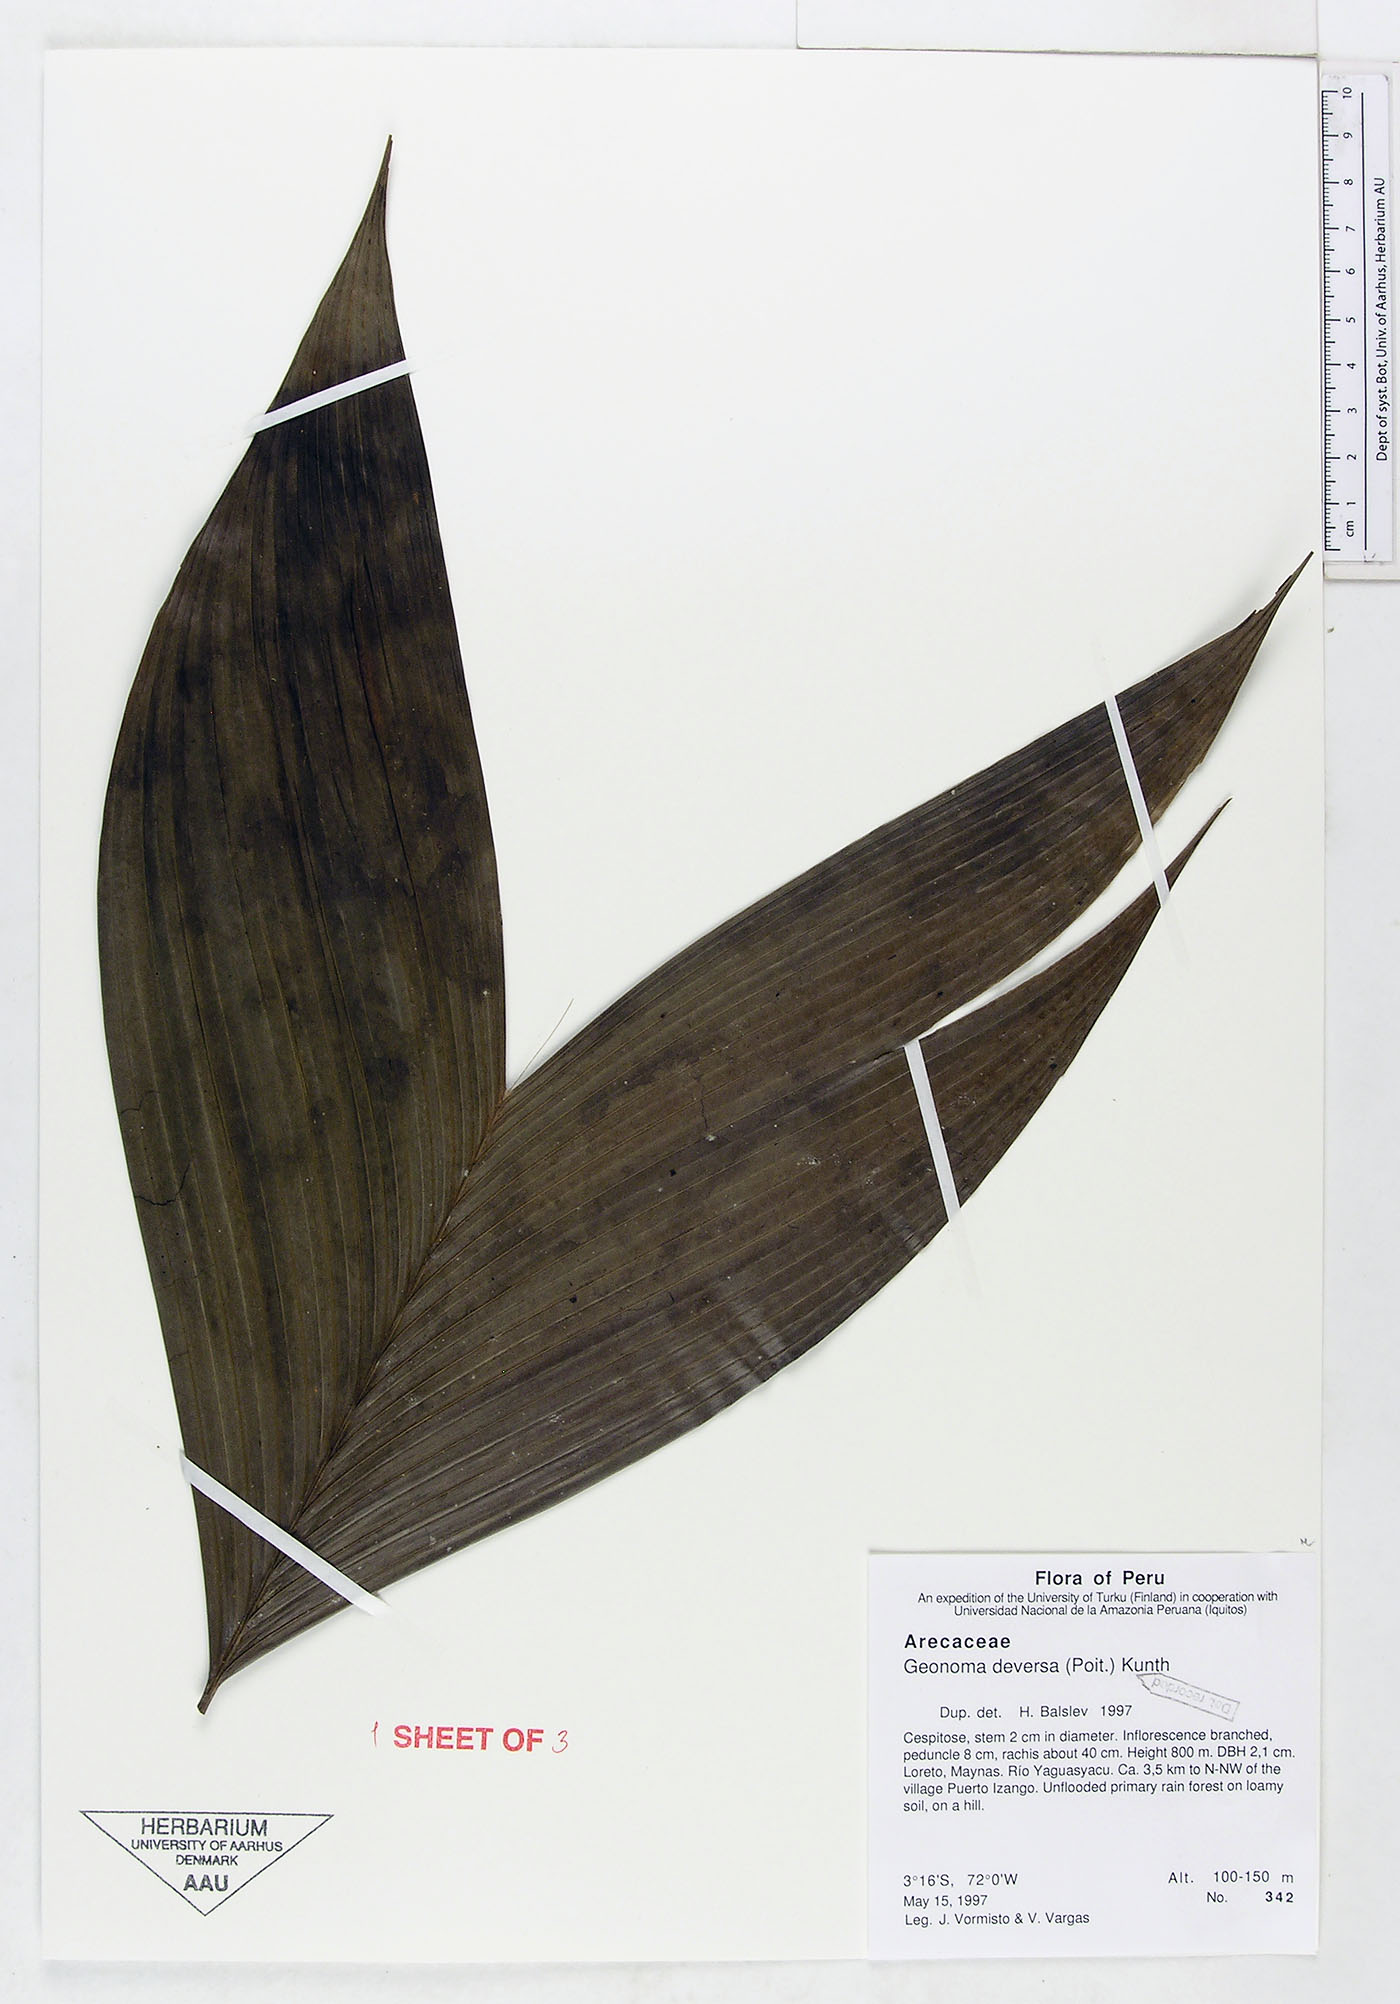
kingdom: Plantae
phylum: Tracheophyta
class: Liliopsida
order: Arecales
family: Arecaceae
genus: Geonoma
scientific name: Geonoma deversa
